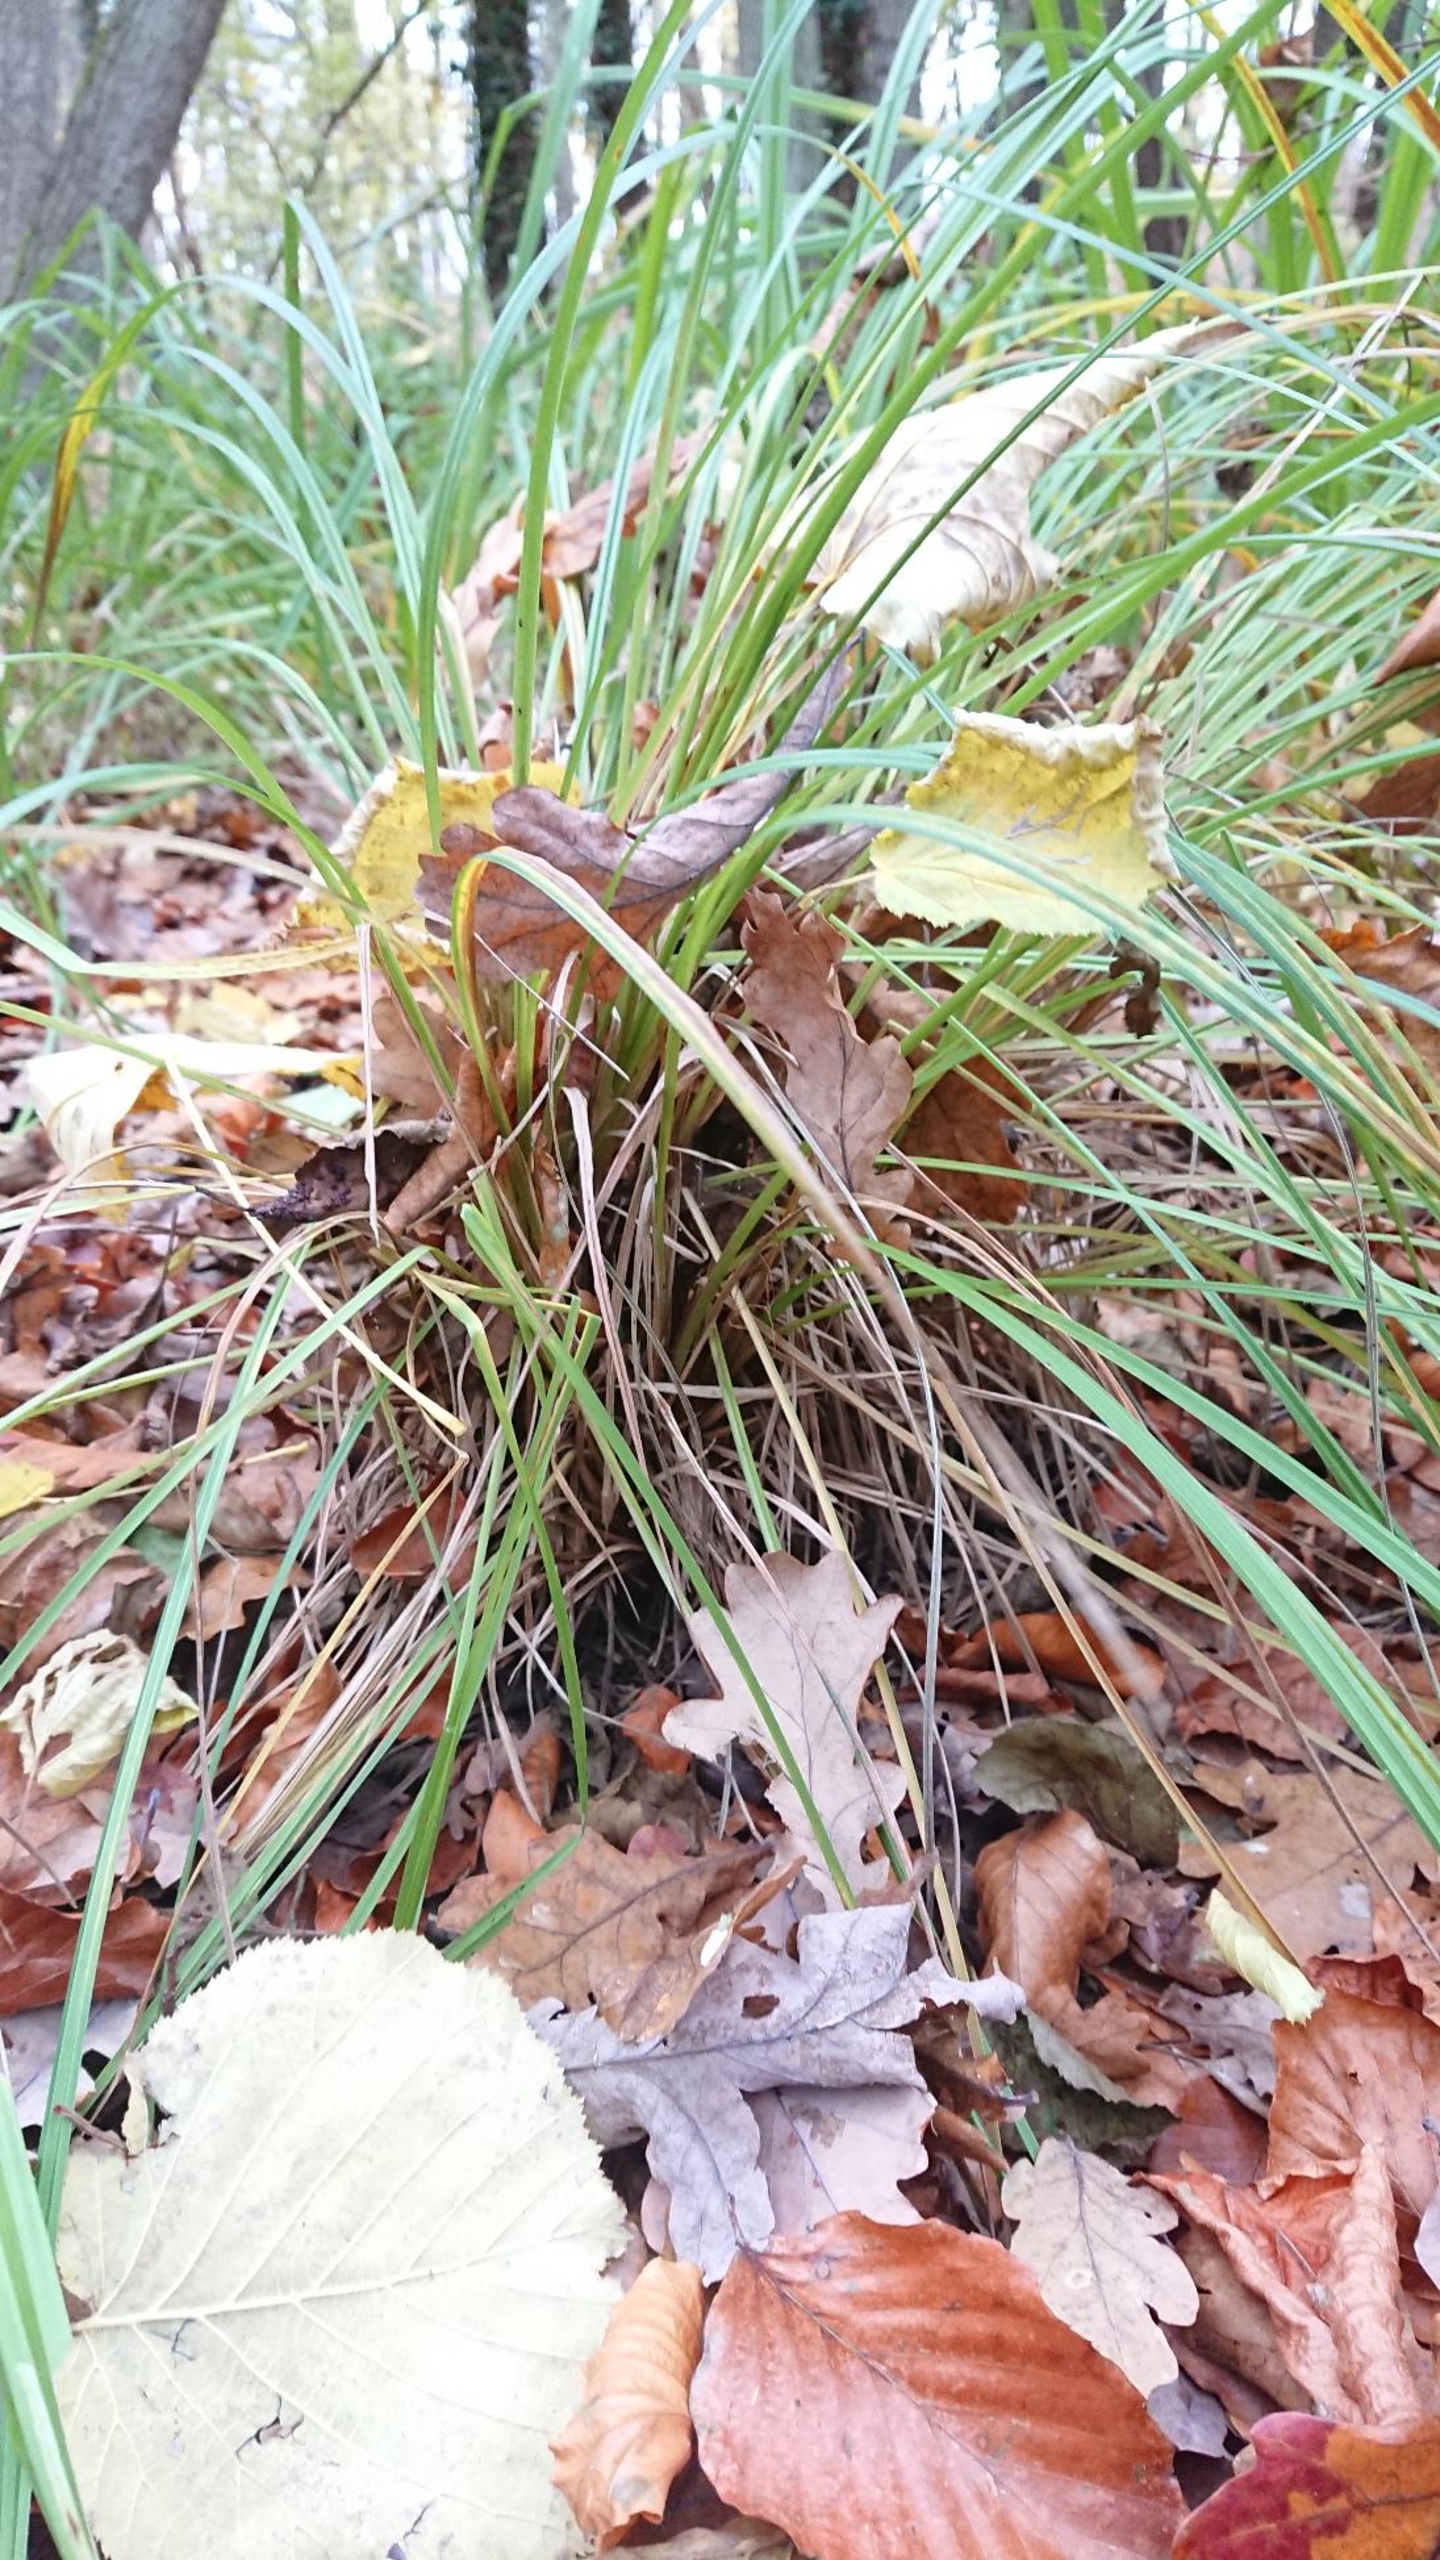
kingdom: Plantae
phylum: Tracheophyta
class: Liliopsida
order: Poales
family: Cyperaceae
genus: Carex
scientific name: Carex elata
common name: Stiv star
